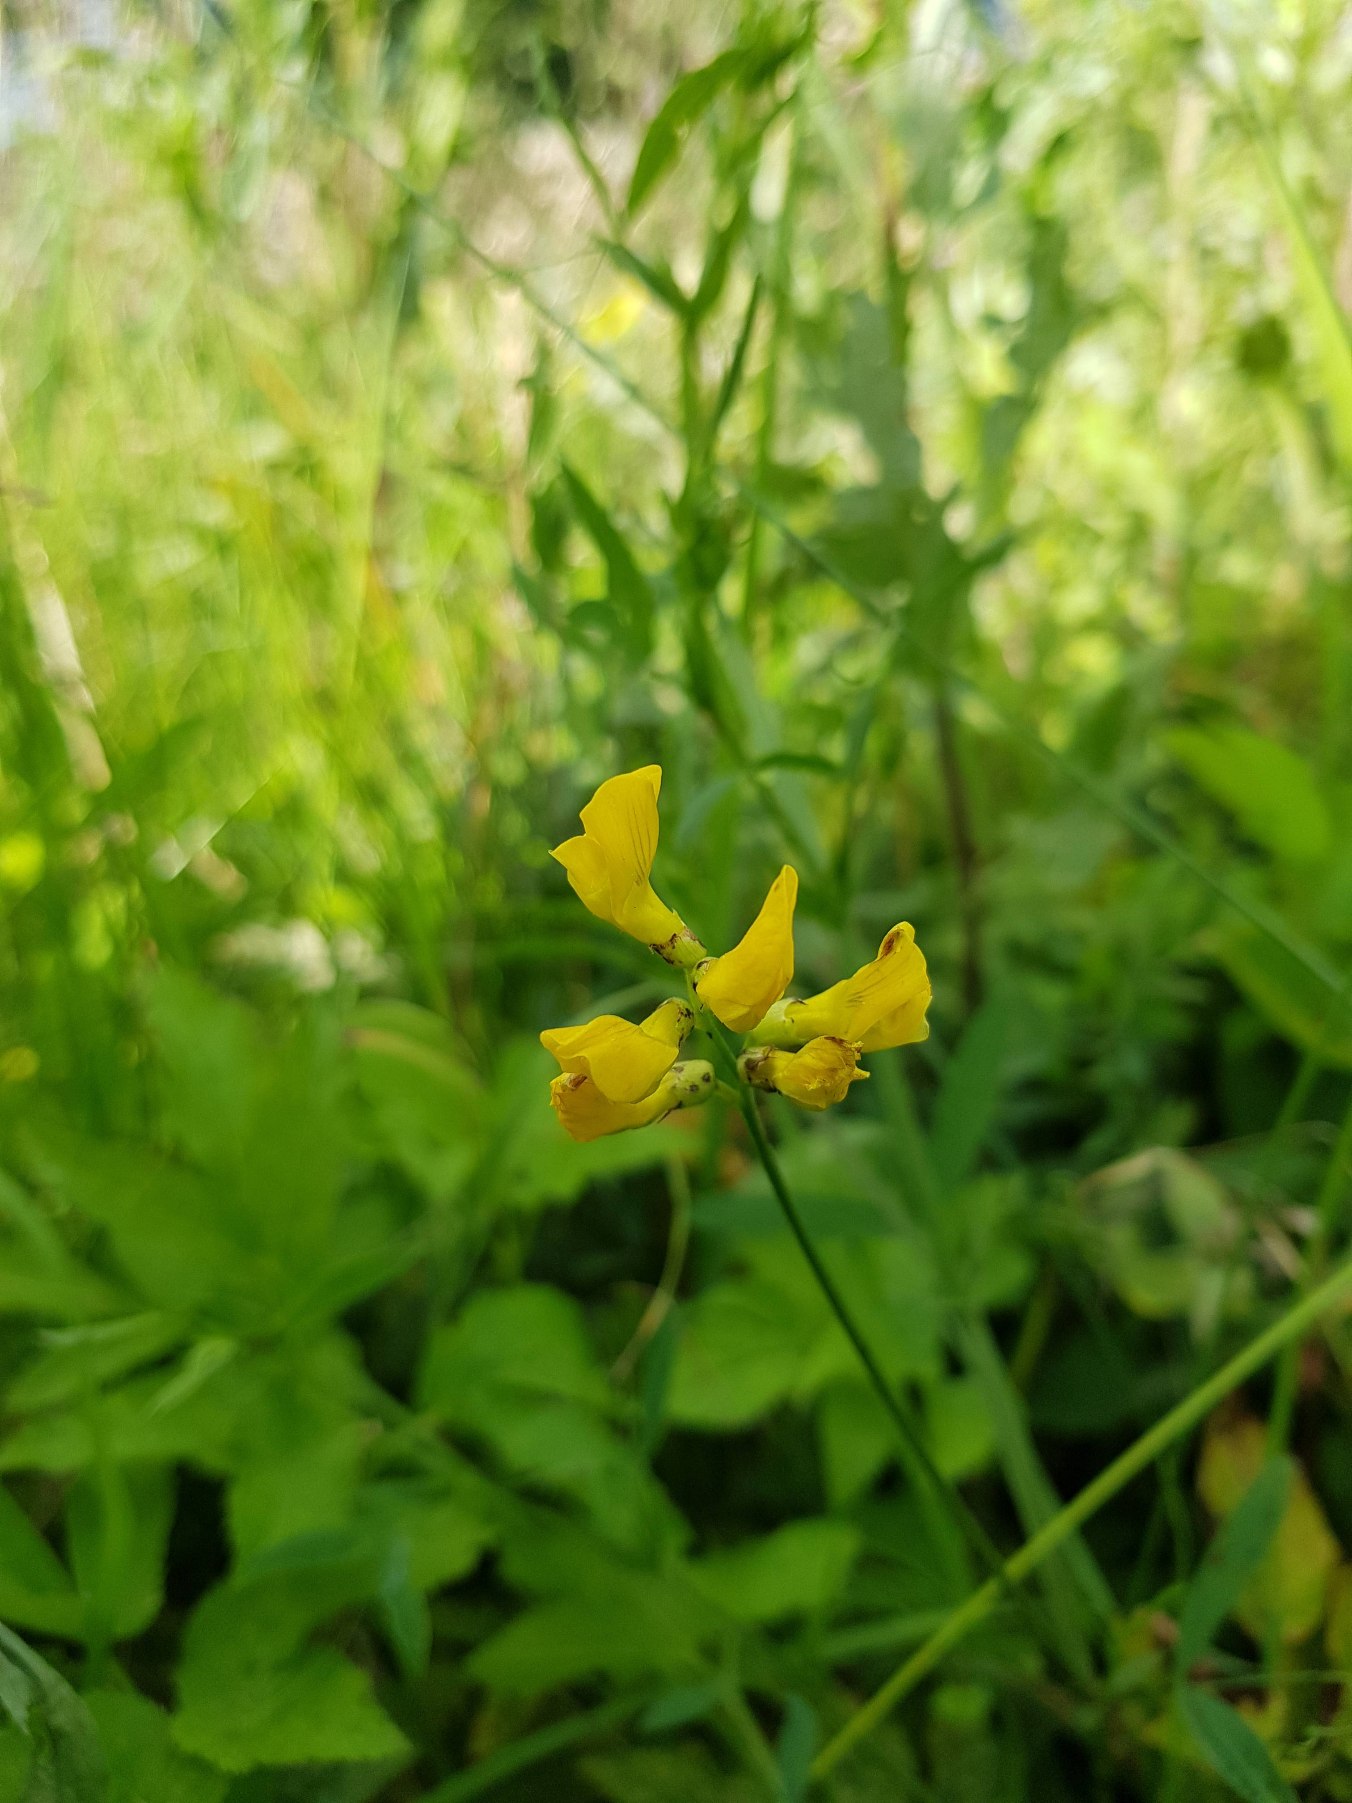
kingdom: Plantae
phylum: Tracheophyta
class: Magnoliopsida
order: Fabales
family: Fabaceae
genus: Lathyrus
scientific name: Lathyrus pratensis
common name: Gul fladbælg
